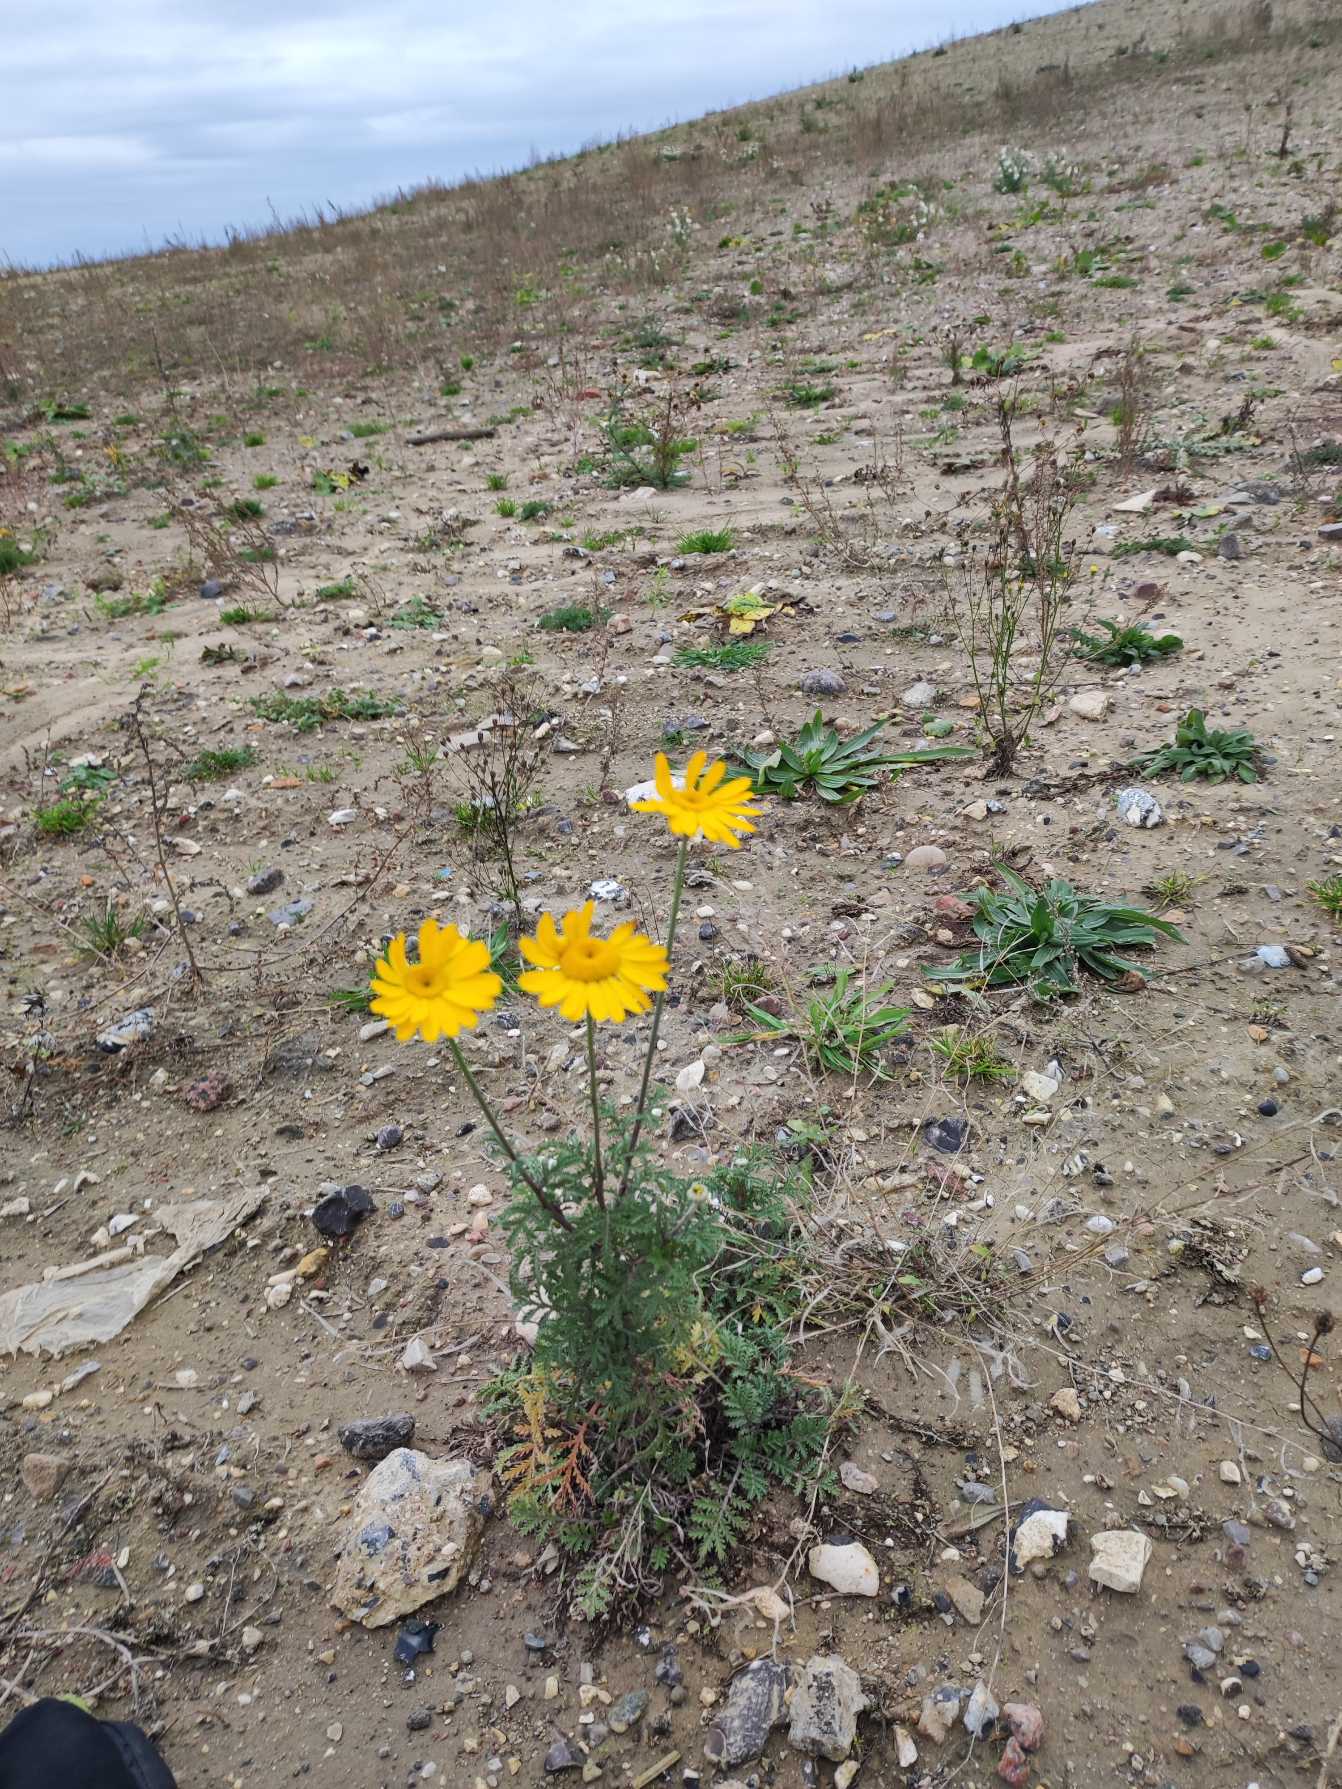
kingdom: Plantae
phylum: Tracheophyta
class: Magnoliopsida
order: Asterales
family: Asteraceae
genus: Cota
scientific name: Cota tinctoria
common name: Farve-gåseurt
